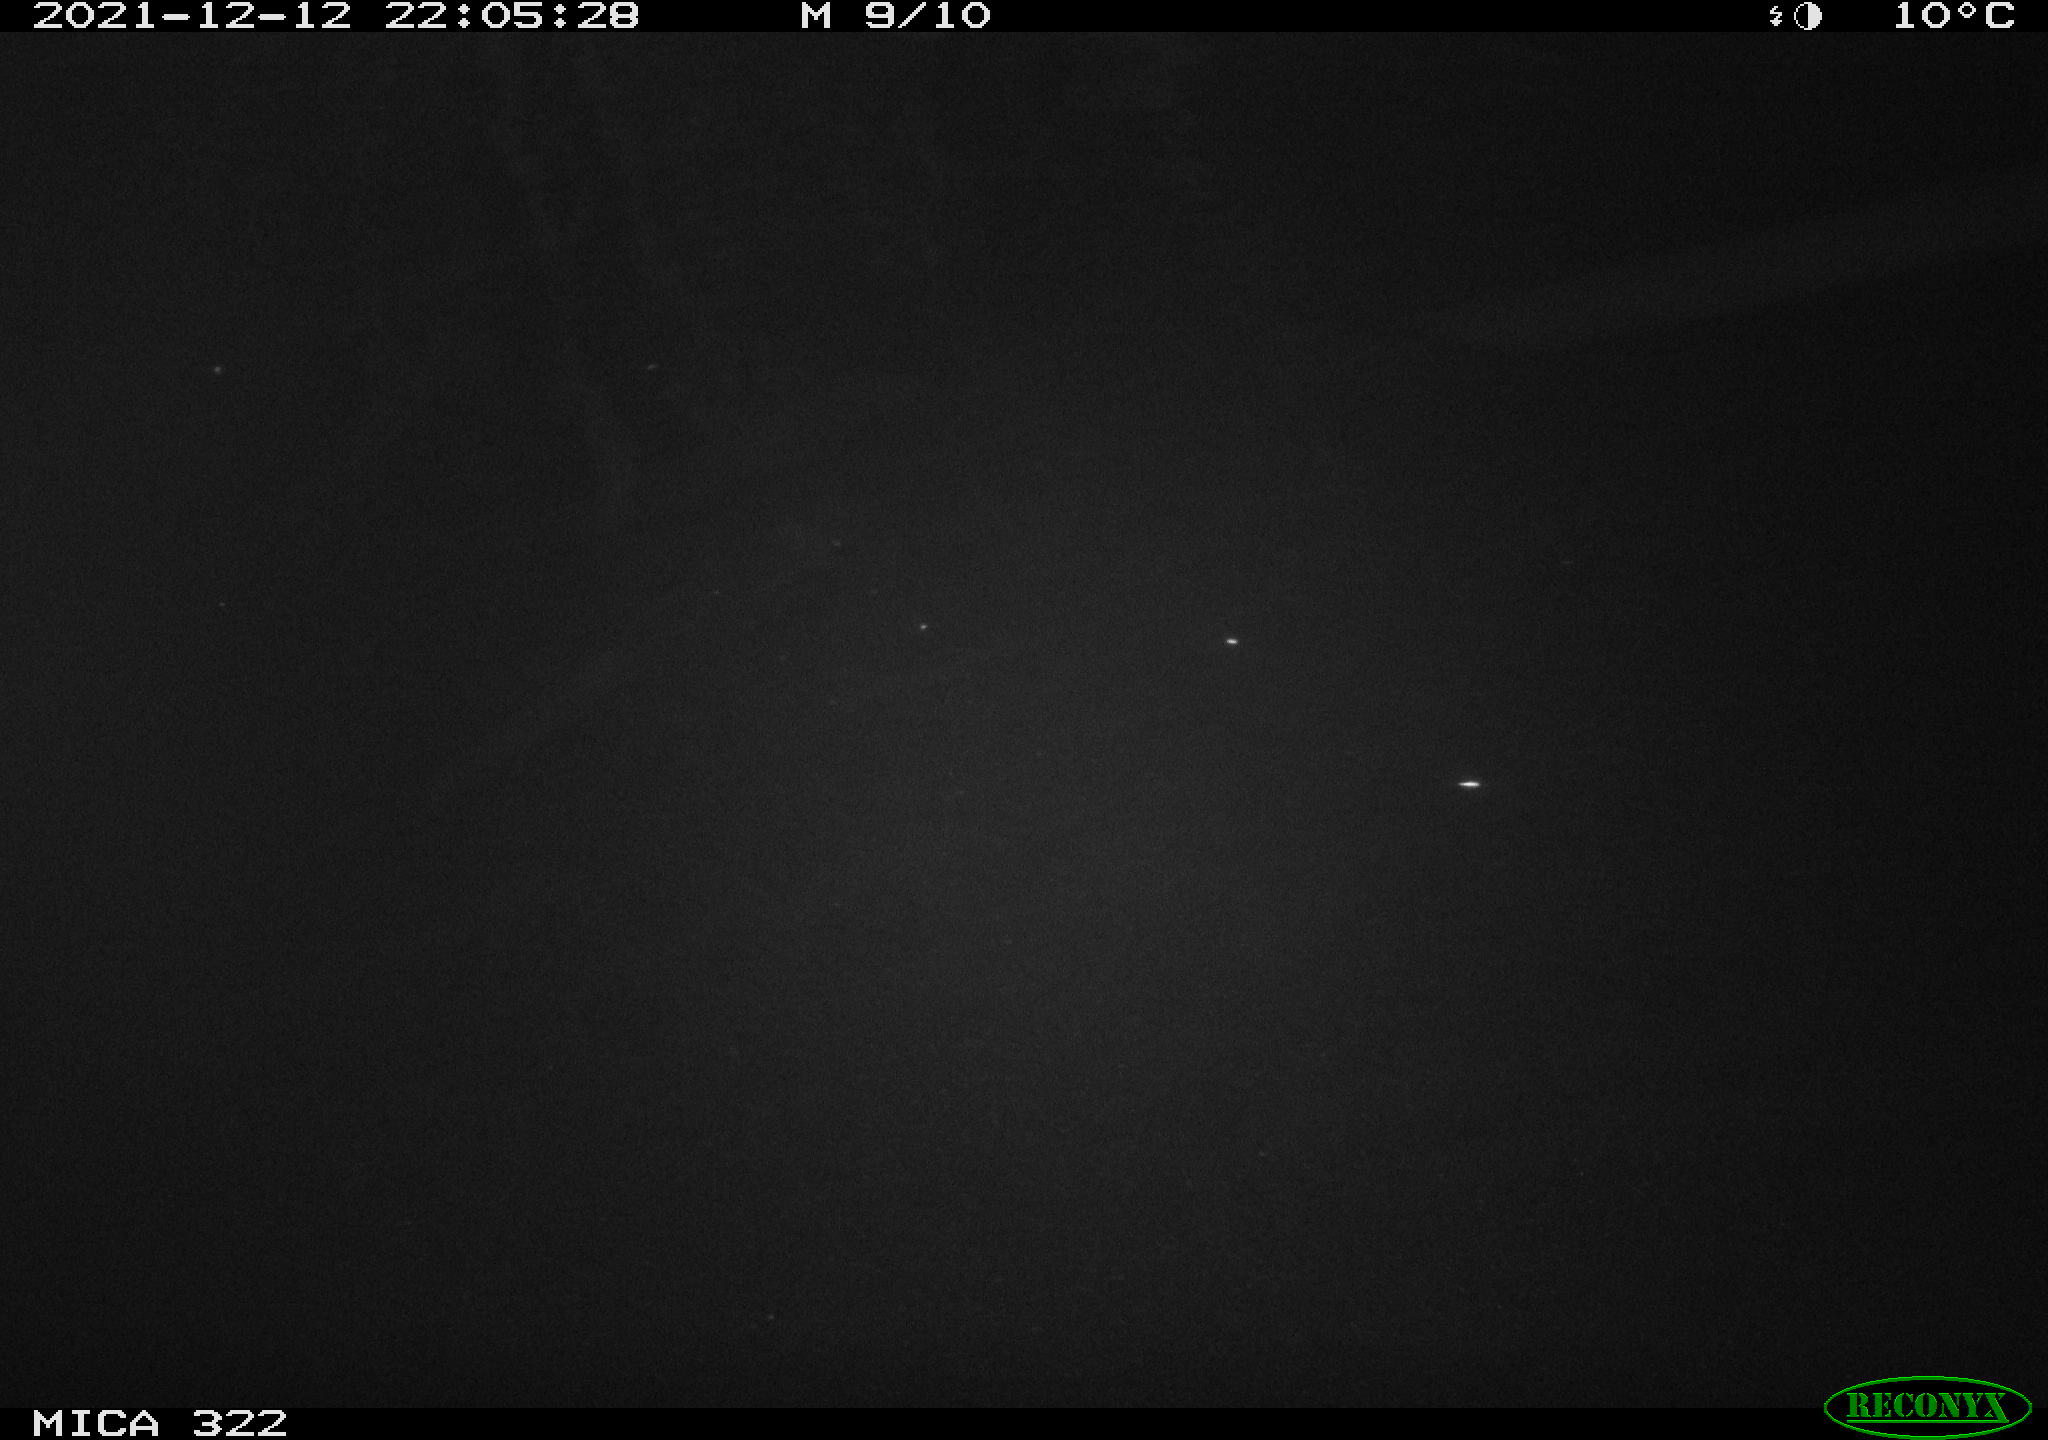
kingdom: Animalia
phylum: Chordata
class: Mammalia
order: Rodentia
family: Muridae
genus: Rattus
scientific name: Rattus norvegicus
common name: Brown rat
